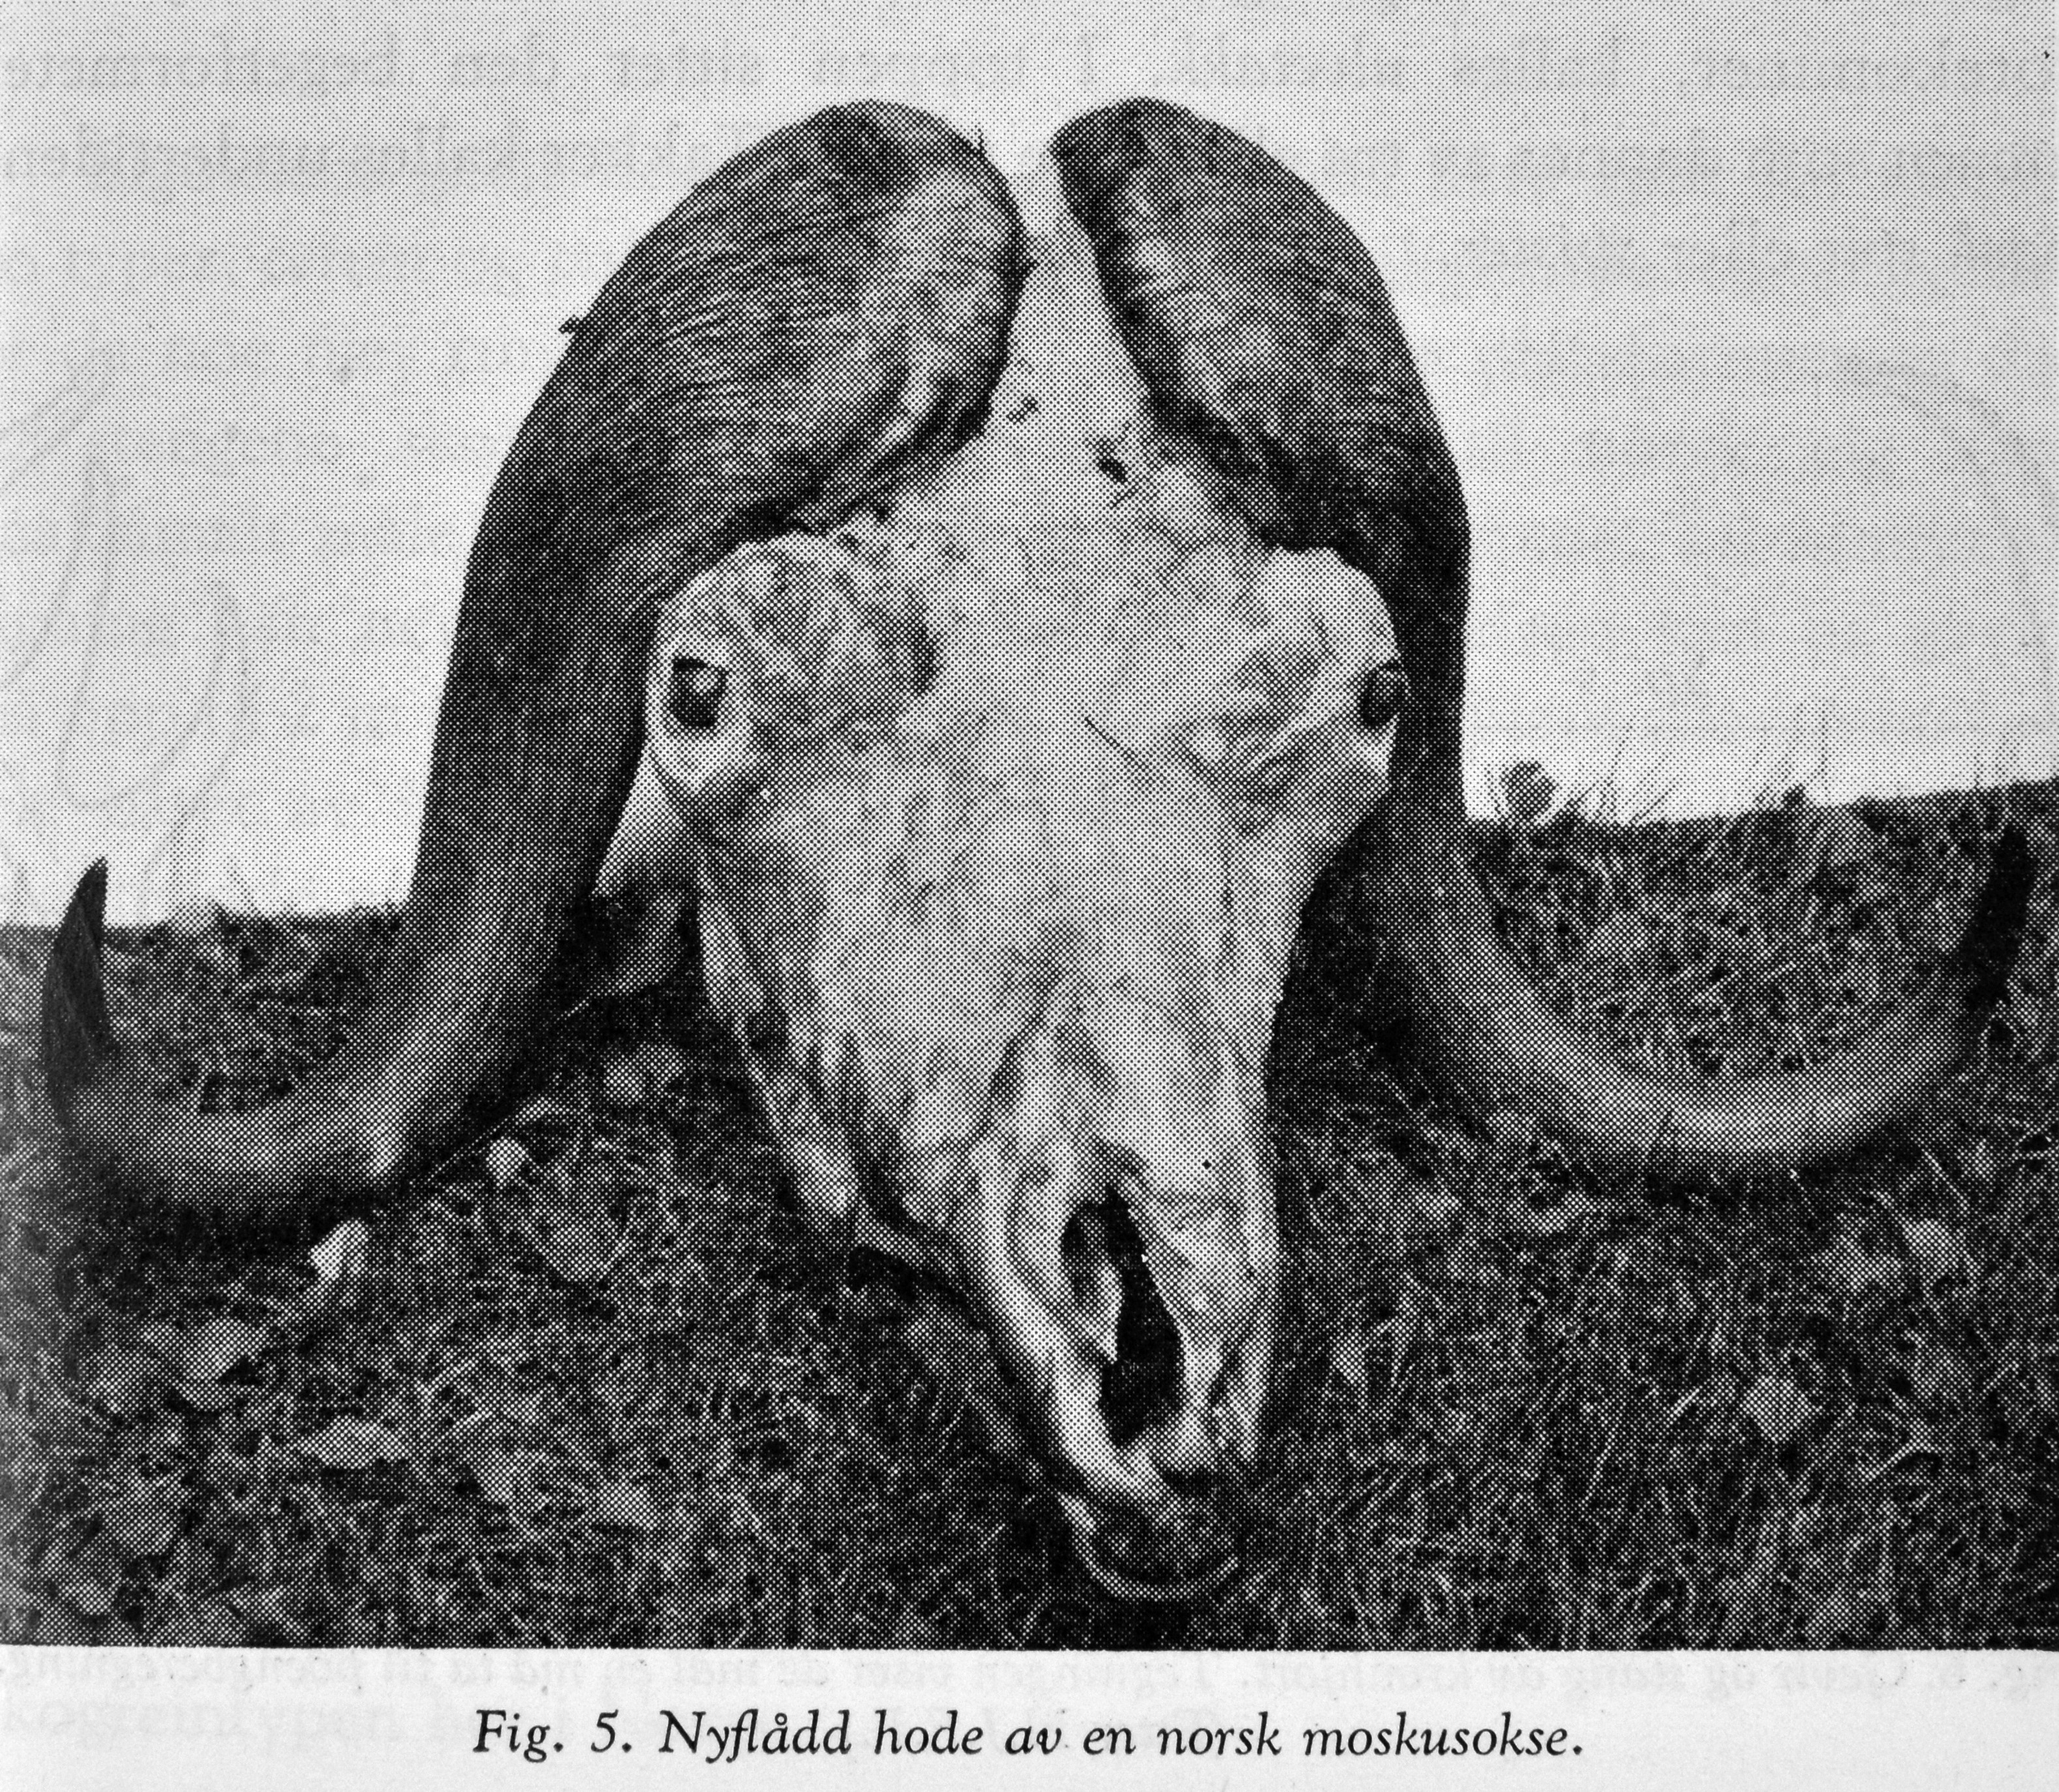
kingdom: Animalia
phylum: Chordata
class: Mammalia
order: Artiodactyla
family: Bovidae
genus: Ovibos
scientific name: Ovibos moschatus
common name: Muskox
